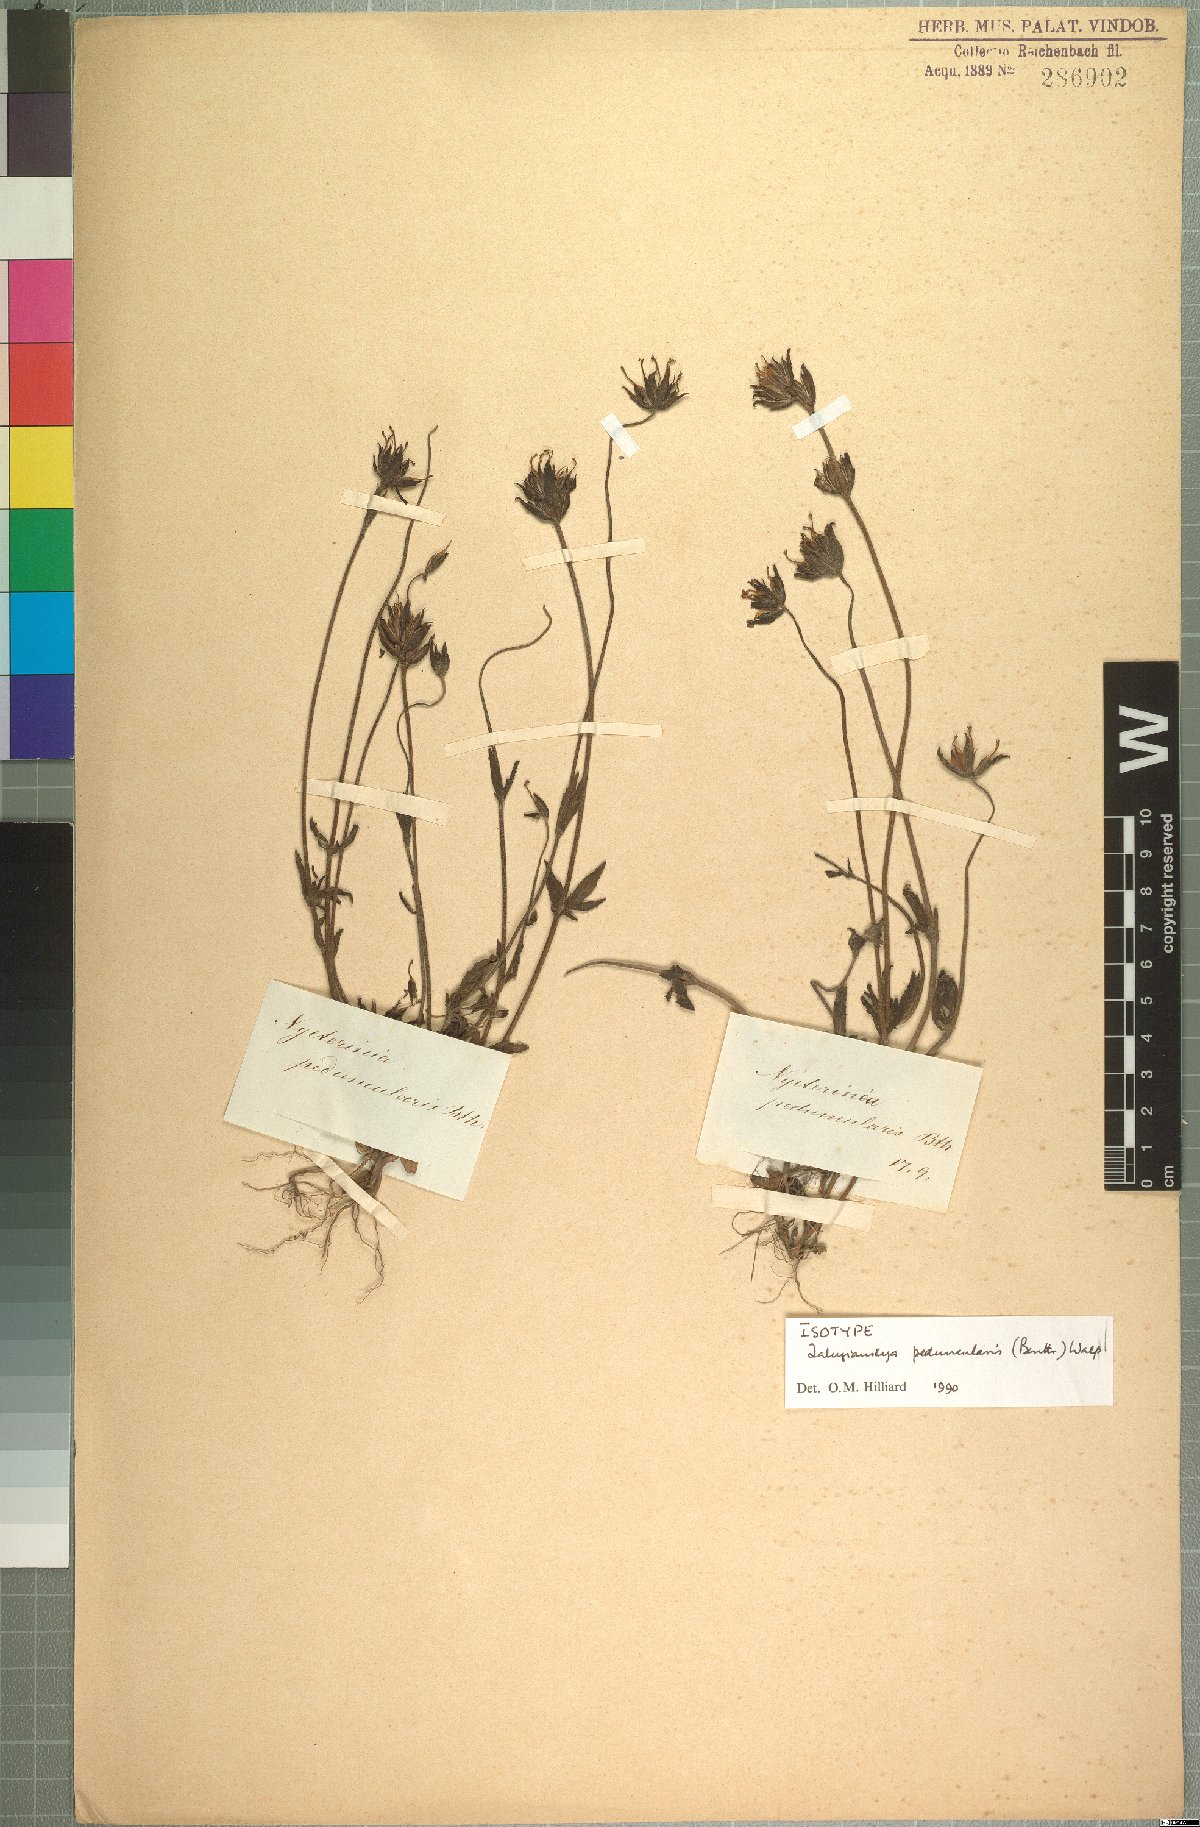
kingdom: Plantae
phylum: Tracheophyta
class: Magnoliopsida
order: Lamiales
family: Scrophulariaceae
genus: Zaluzianskya
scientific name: Zaluzianskya peduncularis
